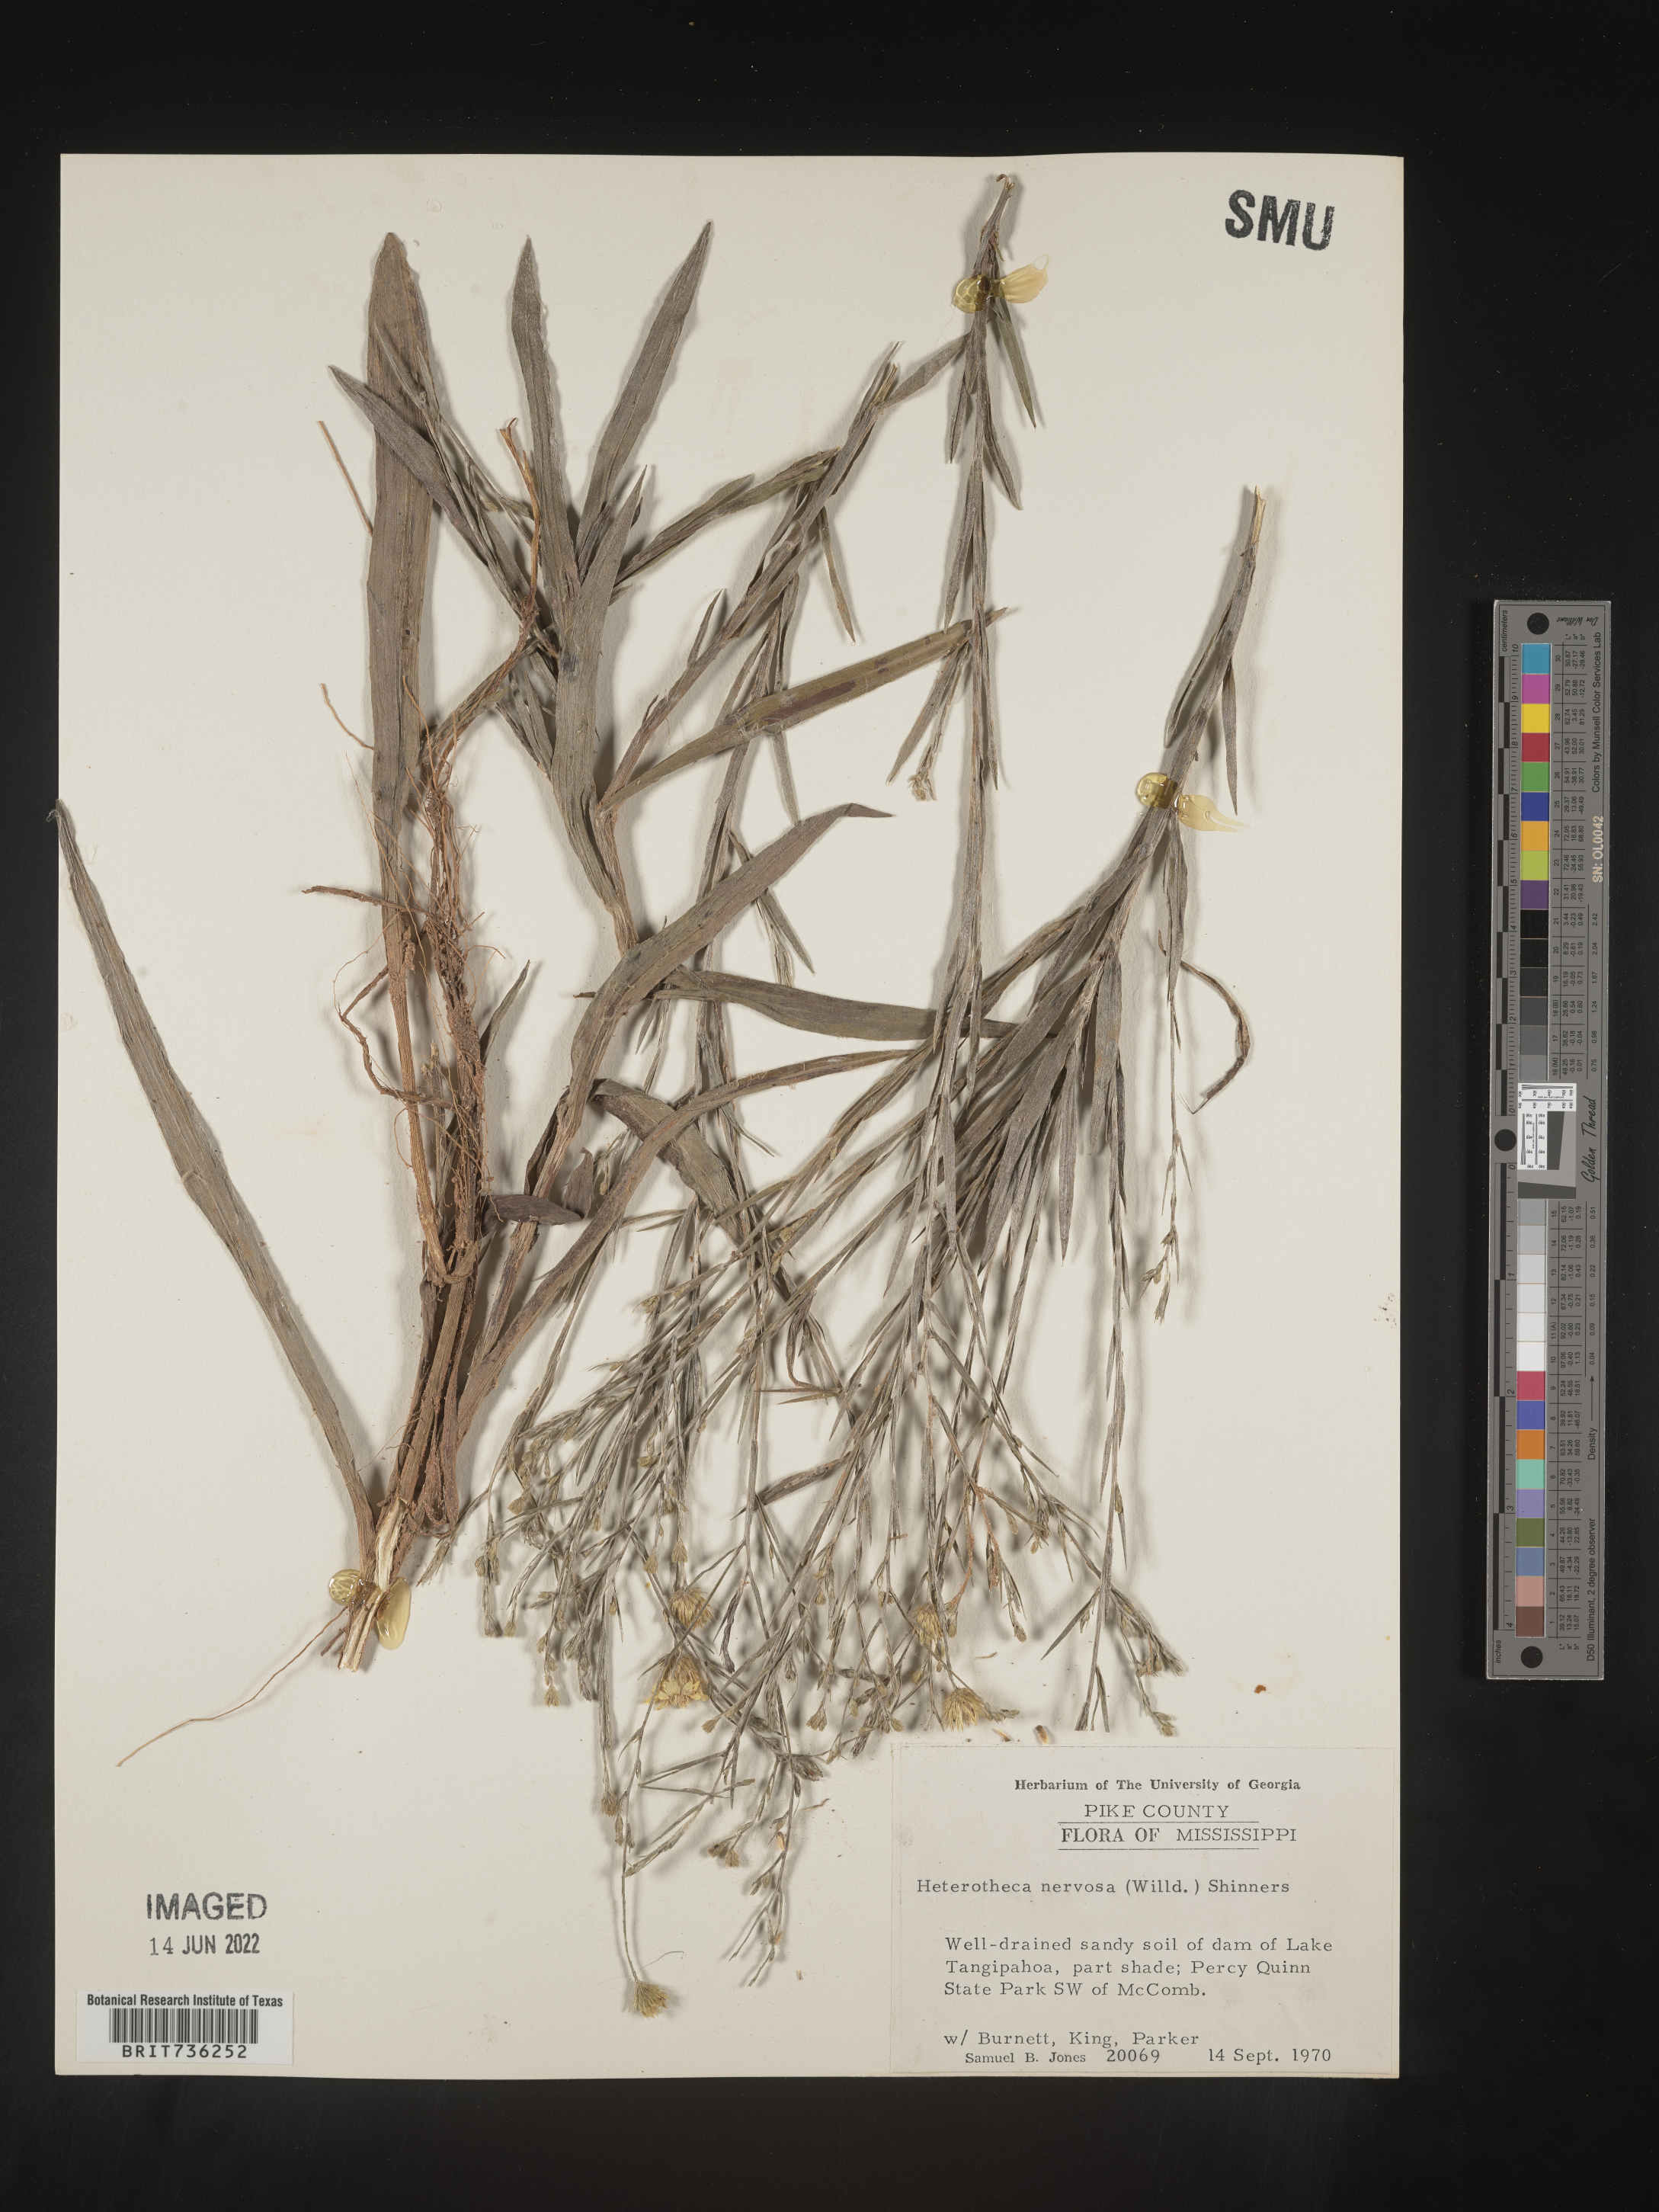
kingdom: Plantae
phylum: Tracheophyta
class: Magnoliopsida
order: Asterales
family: Asteraceae
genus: Pityopsis
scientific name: Pityopsis graminifolia
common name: Grass-leaf golden-aster
